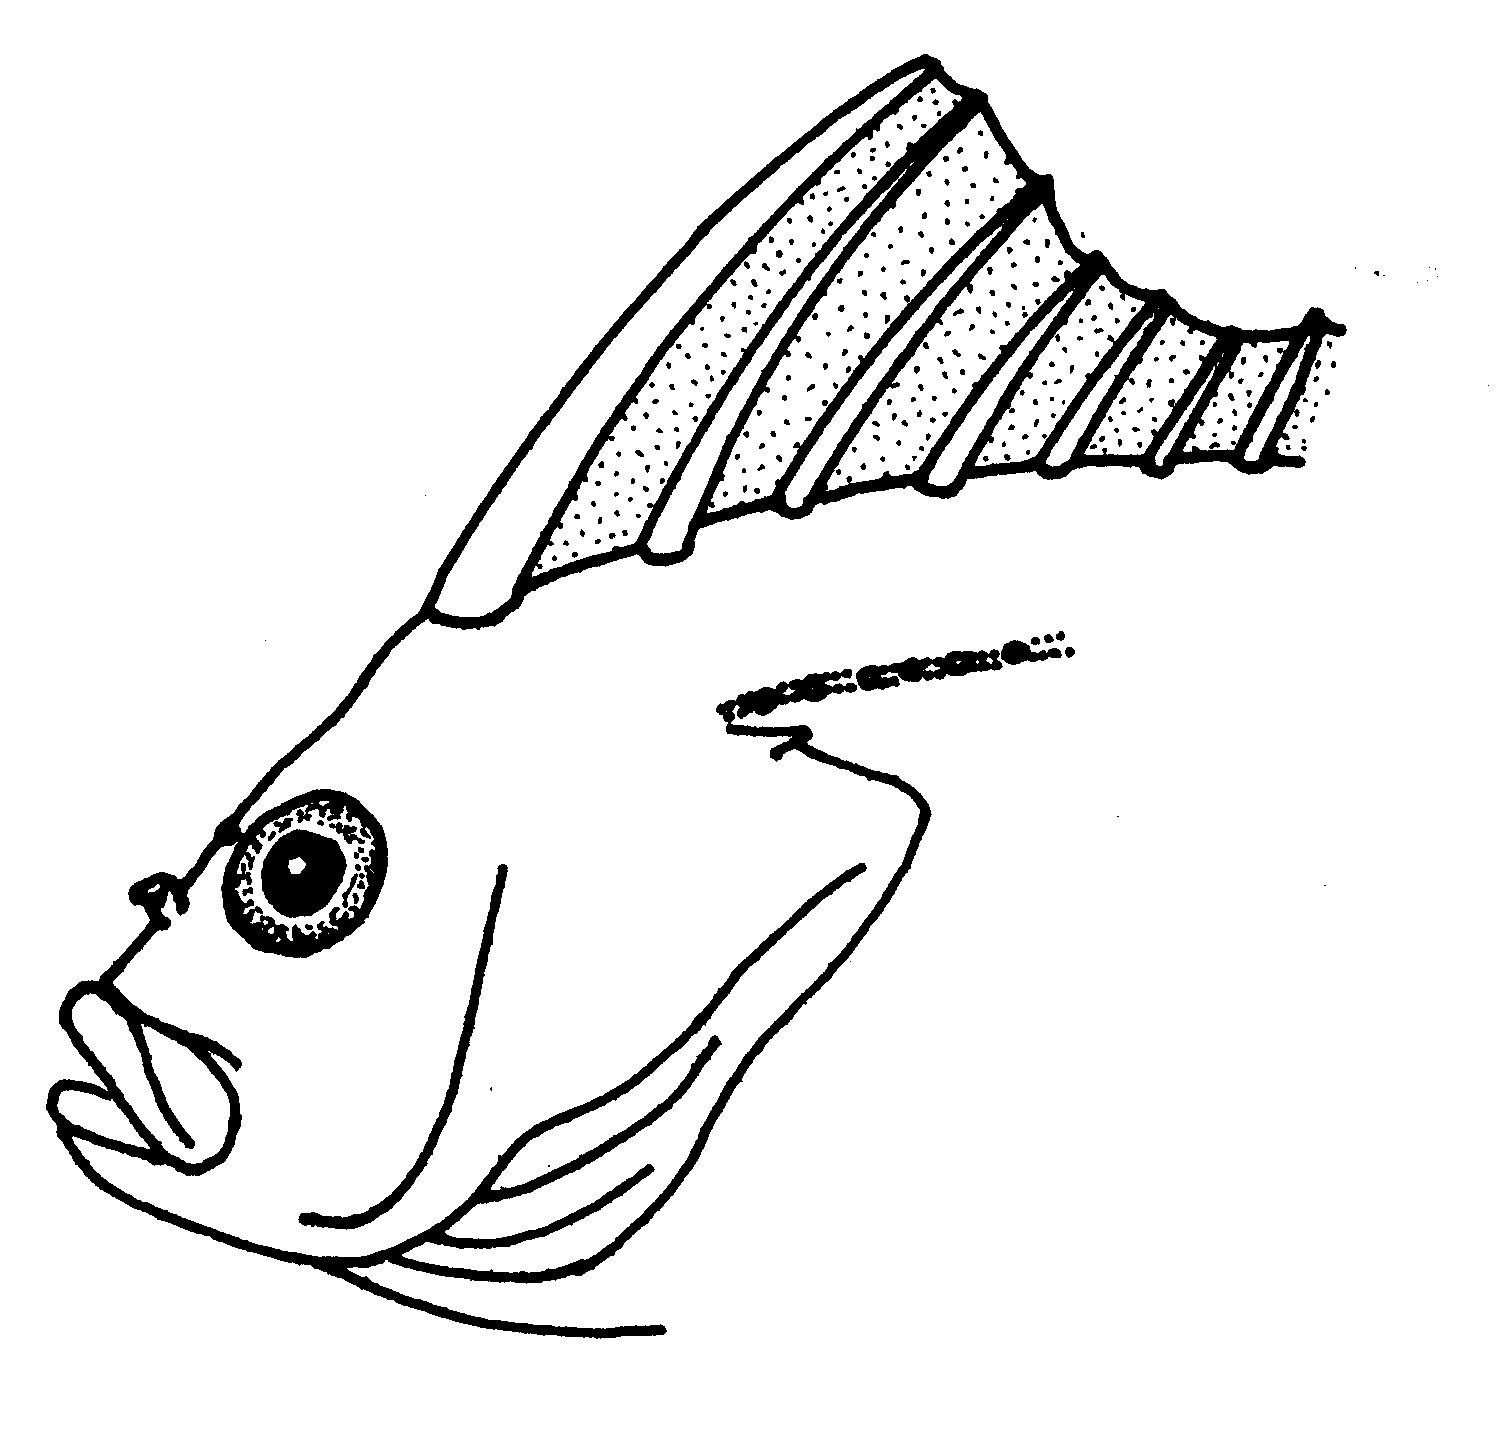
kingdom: Animalia
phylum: Chordata
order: Perciformes
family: Clinidae
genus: Smithichthys
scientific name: Smithichthys fucorum
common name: Leafy klipfish
